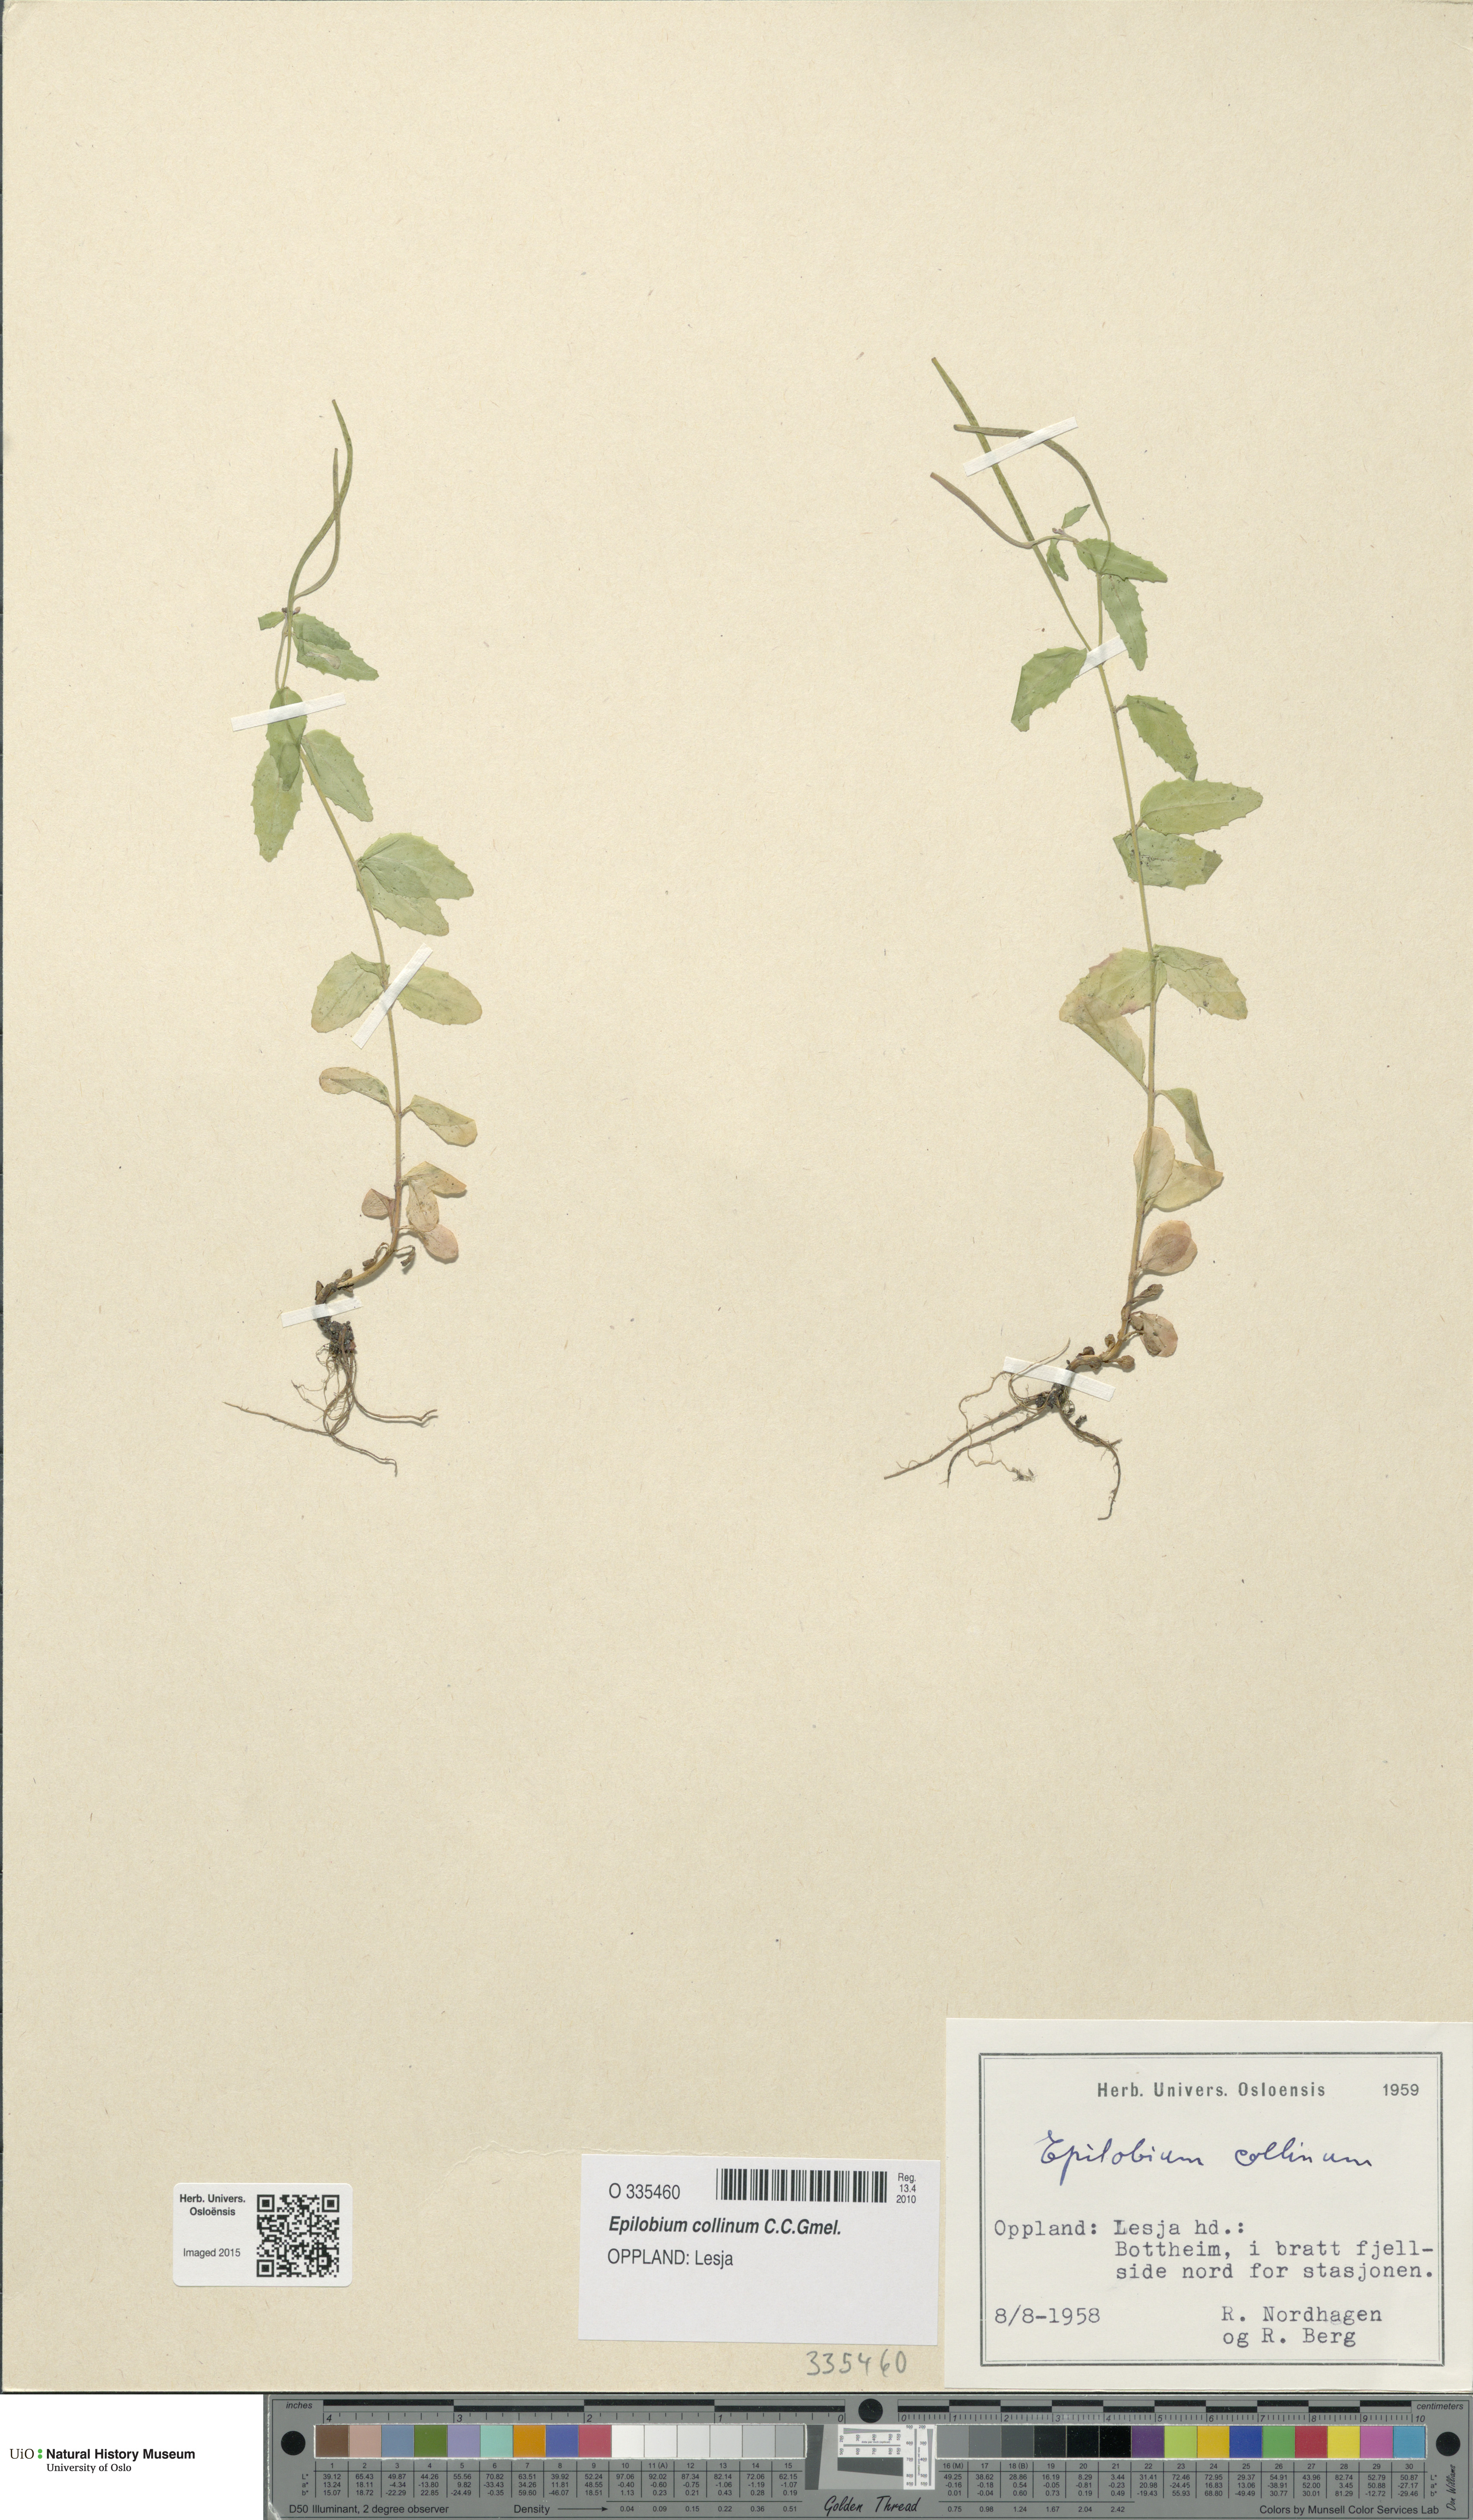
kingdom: Plantae
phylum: Tracheophyta
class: Magnoliopsida
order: Myrtales
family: Onagraceae
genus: Epilobium
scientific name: Epilobium collinum
